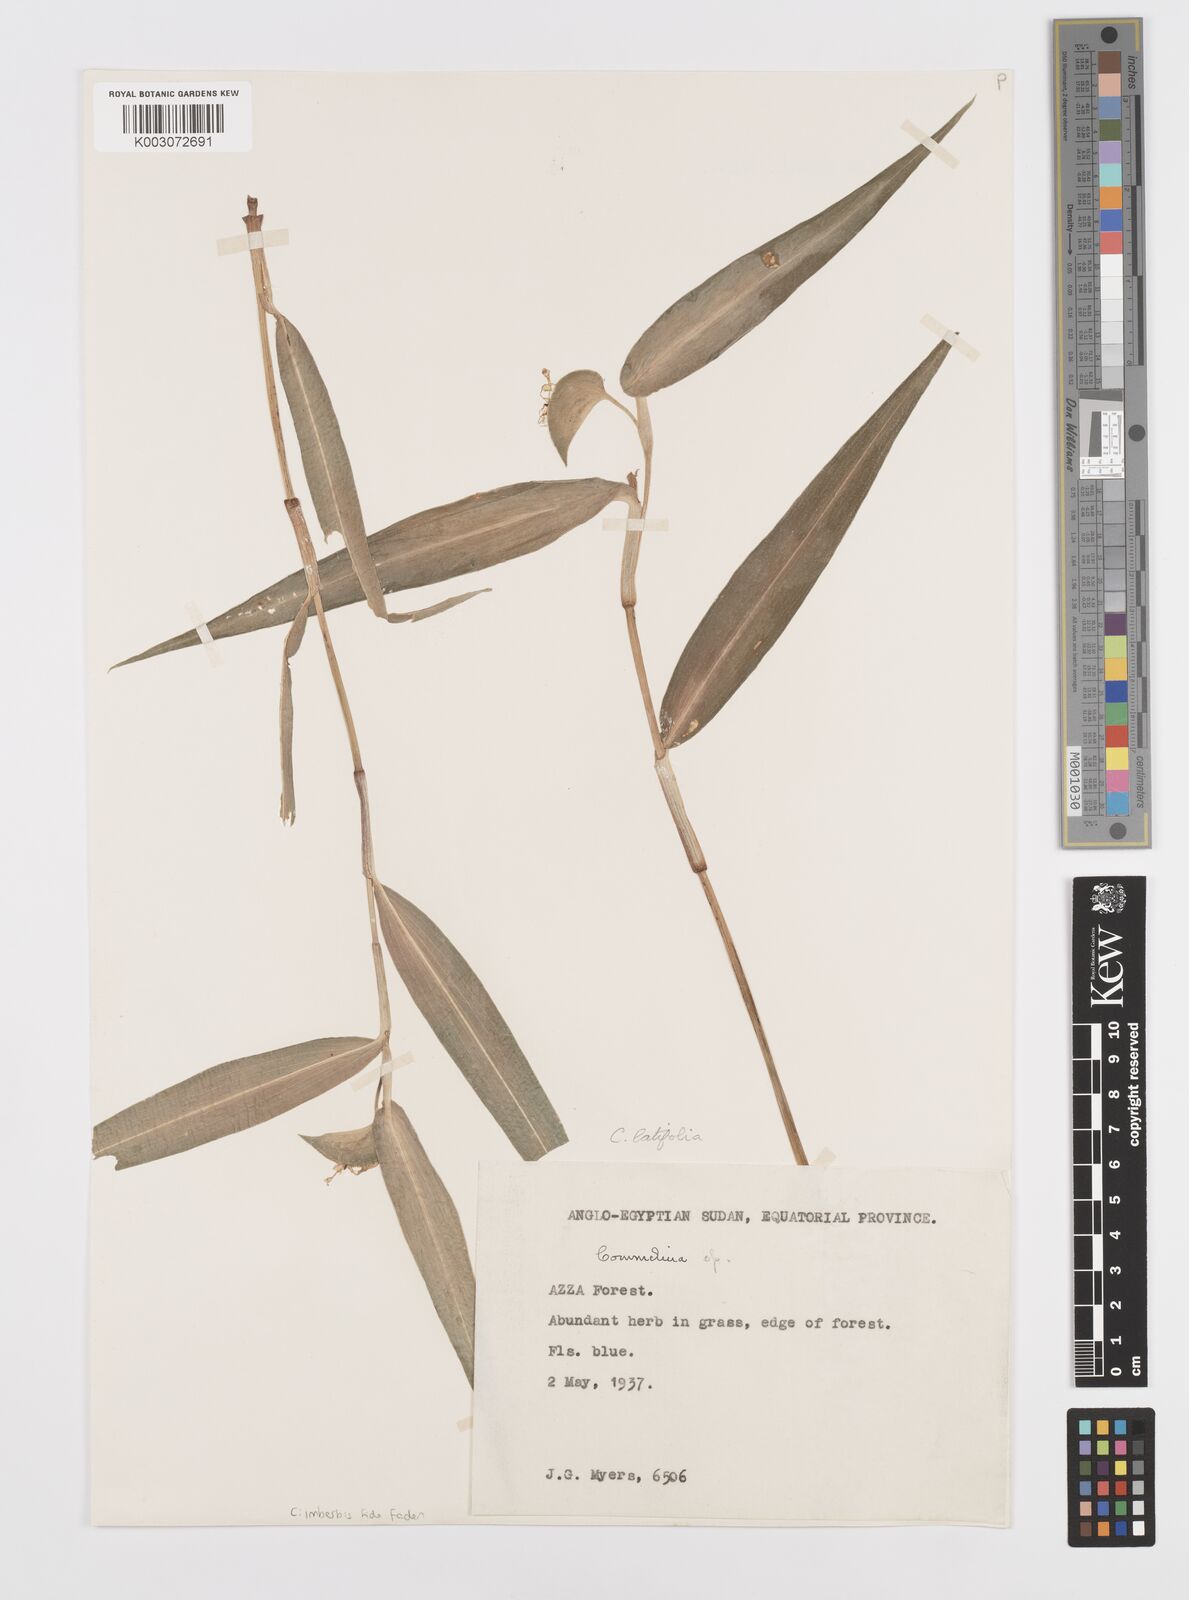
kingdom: Plantae
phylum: Tracheophyta
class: Liliopsida
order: Commelinales
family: Commelinaceae
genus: Commelina
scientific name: Commelina imberbis
